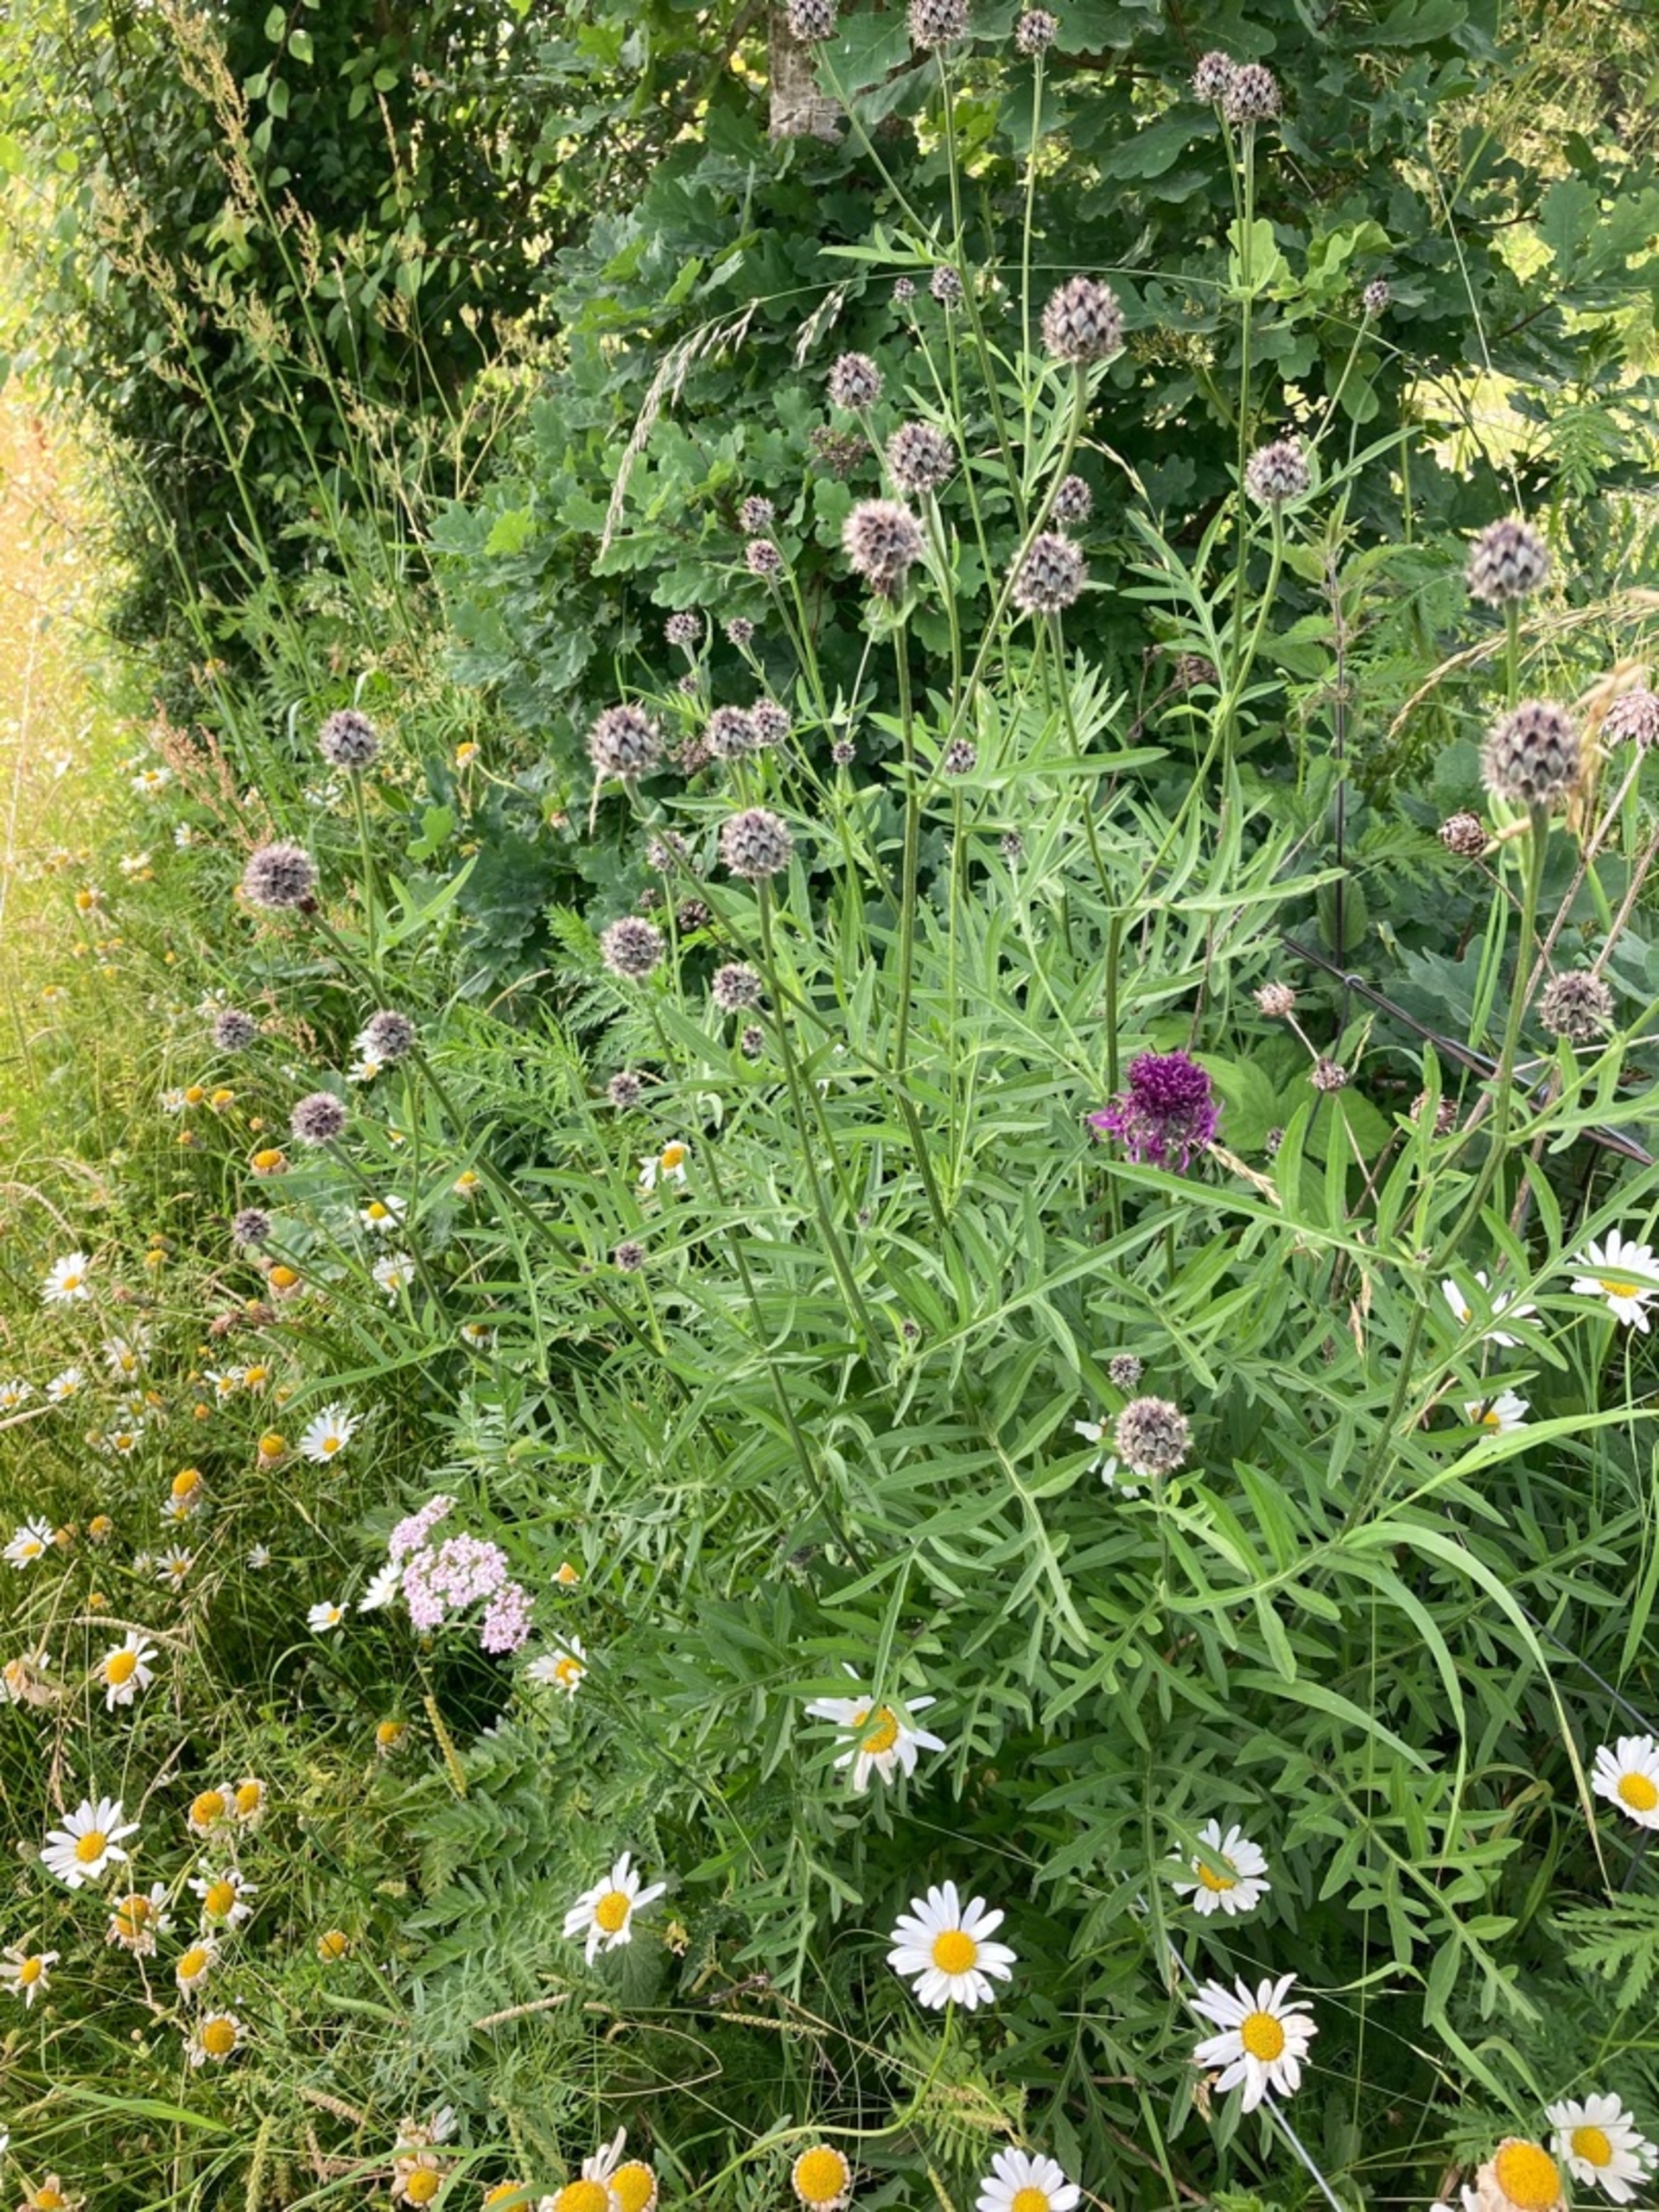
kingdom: Plantae
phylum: Tracheophyta
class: Magnoliopsida
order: Asterales
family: Asteraceae
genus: Centaurea
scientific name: Centaurea scabiosa
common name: Stor knopurt
